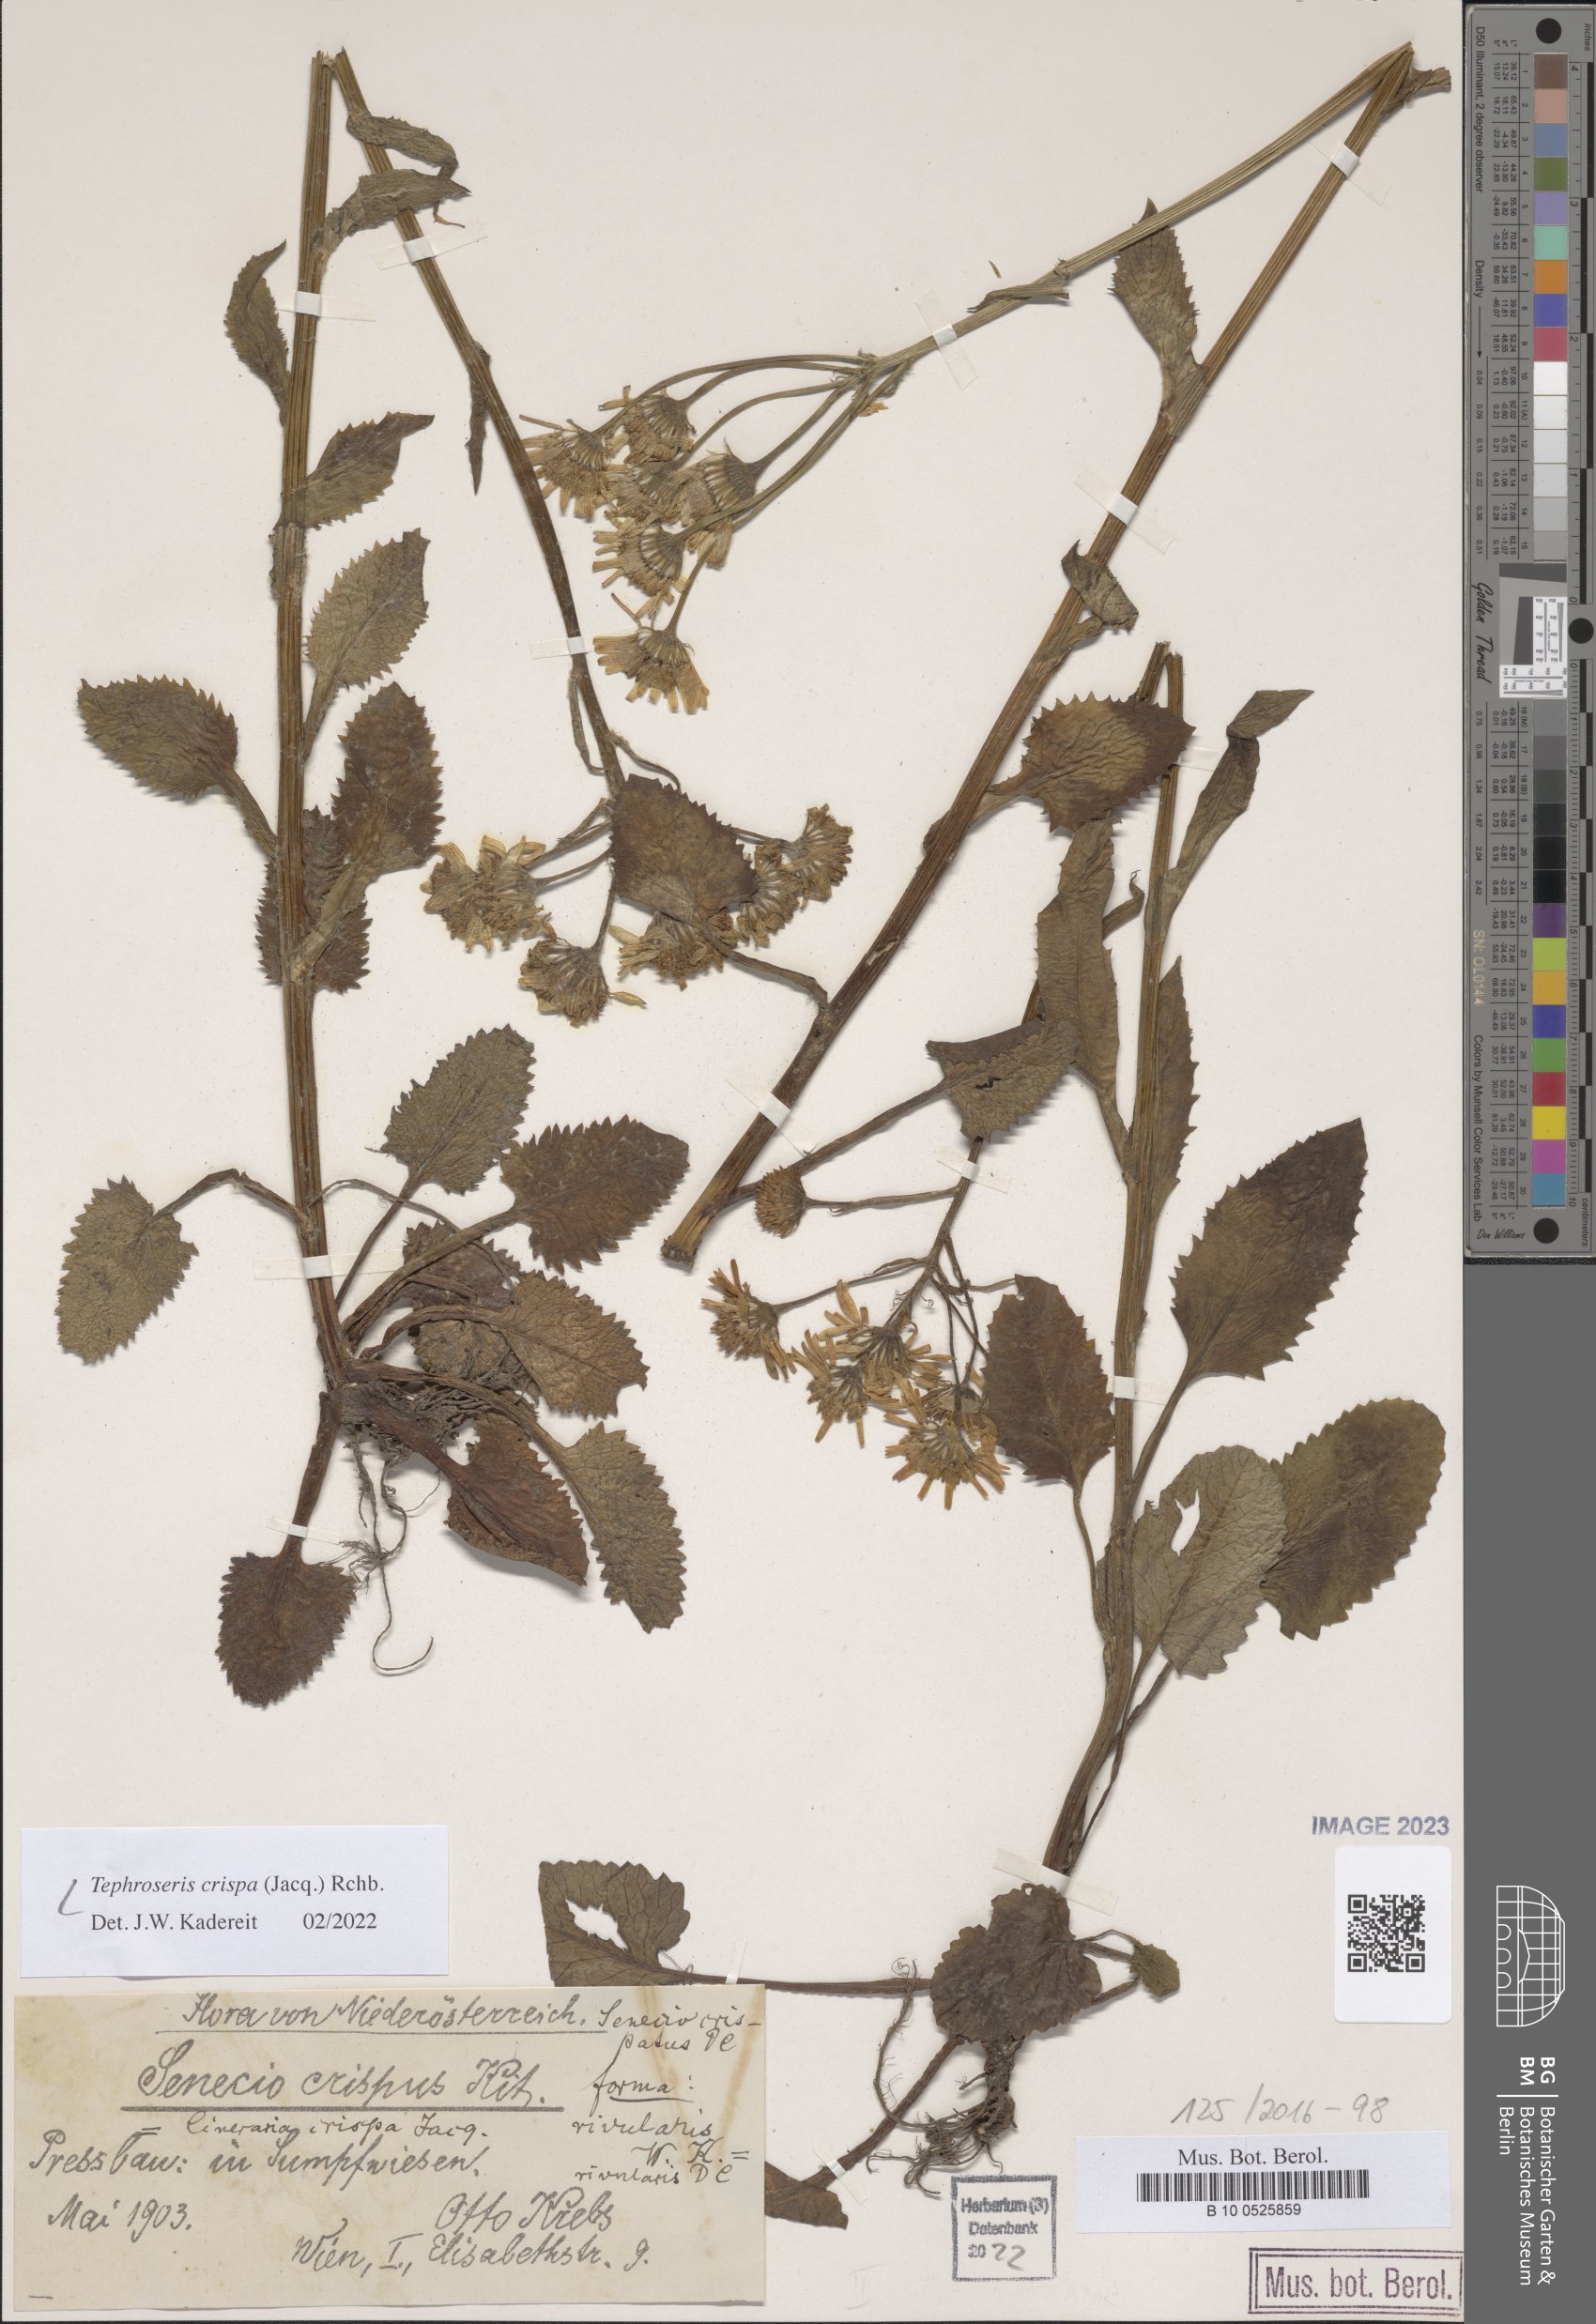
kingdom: Plantae
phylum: Tracheophyta
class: Magnoliopsida
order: Asterales
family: Asteraceae
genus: Tephroseris
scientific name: Tephroseris crispa
